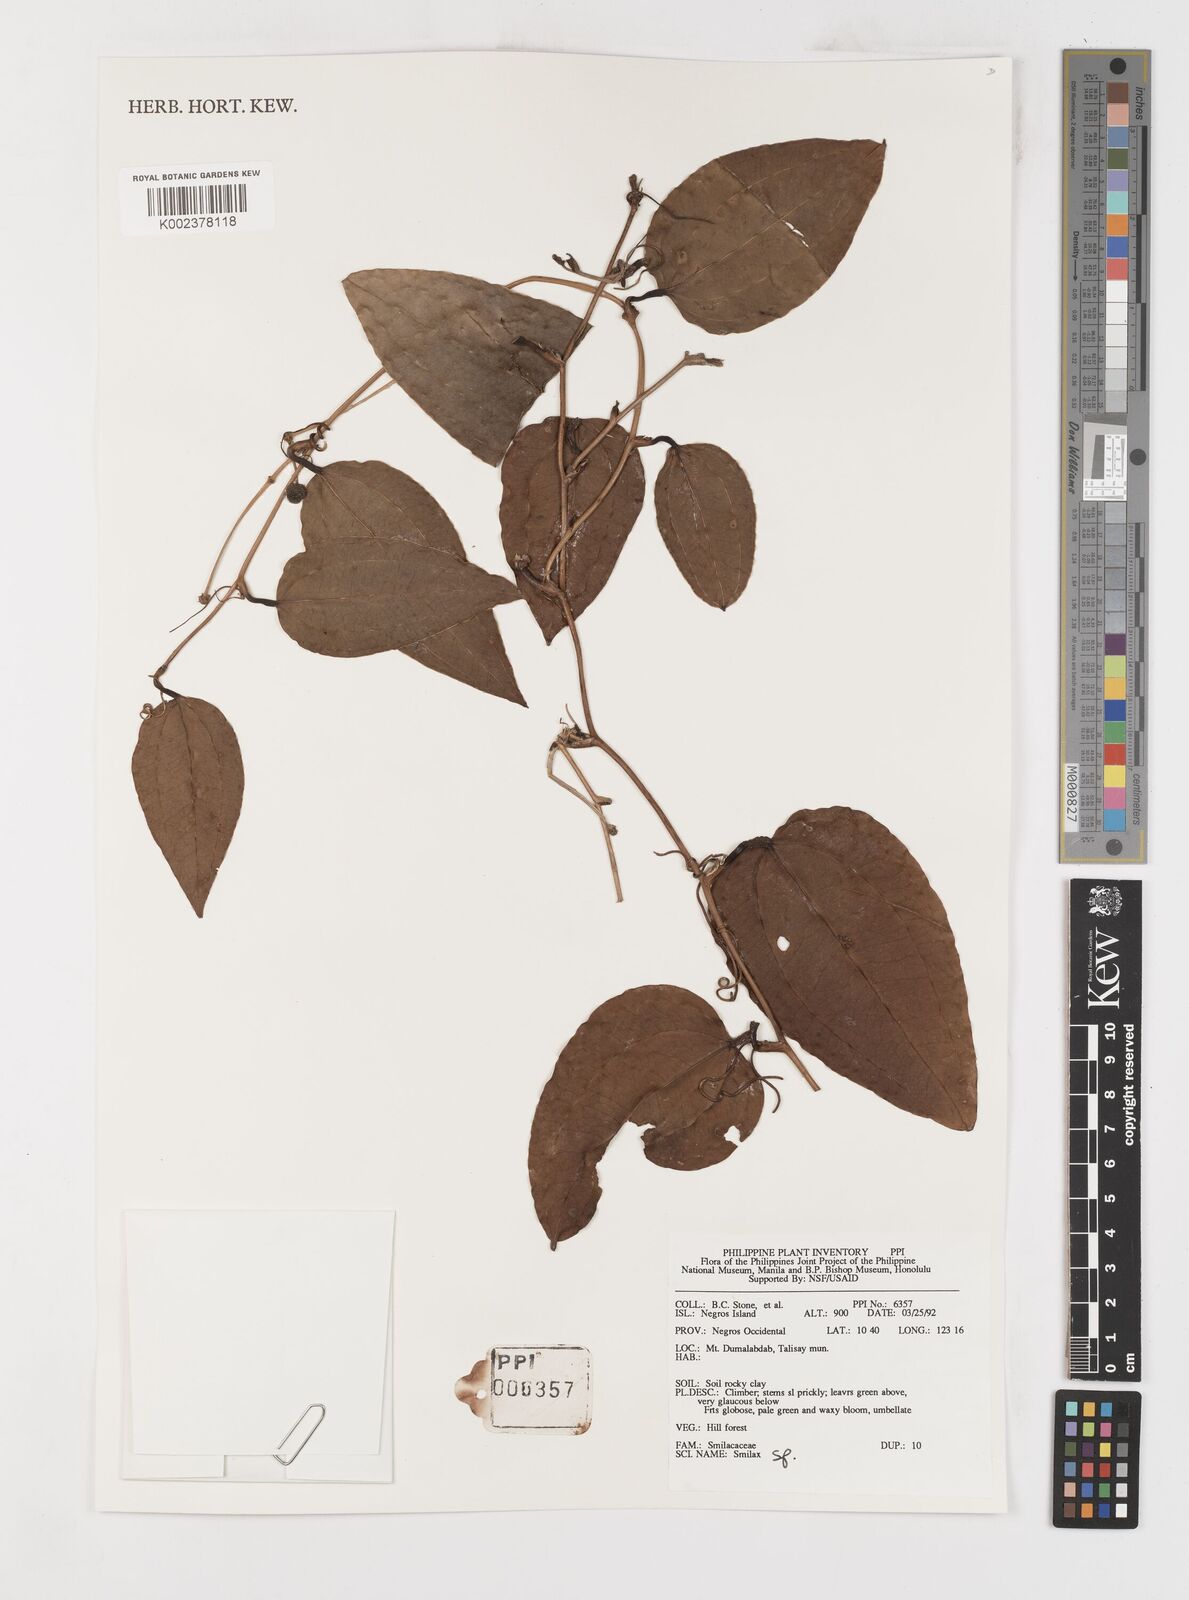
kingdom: Plantae
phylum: Tracheophyta
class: Liliopsida
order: Liliales
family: Smilacaceae
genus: Smilax
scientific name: Smilax
